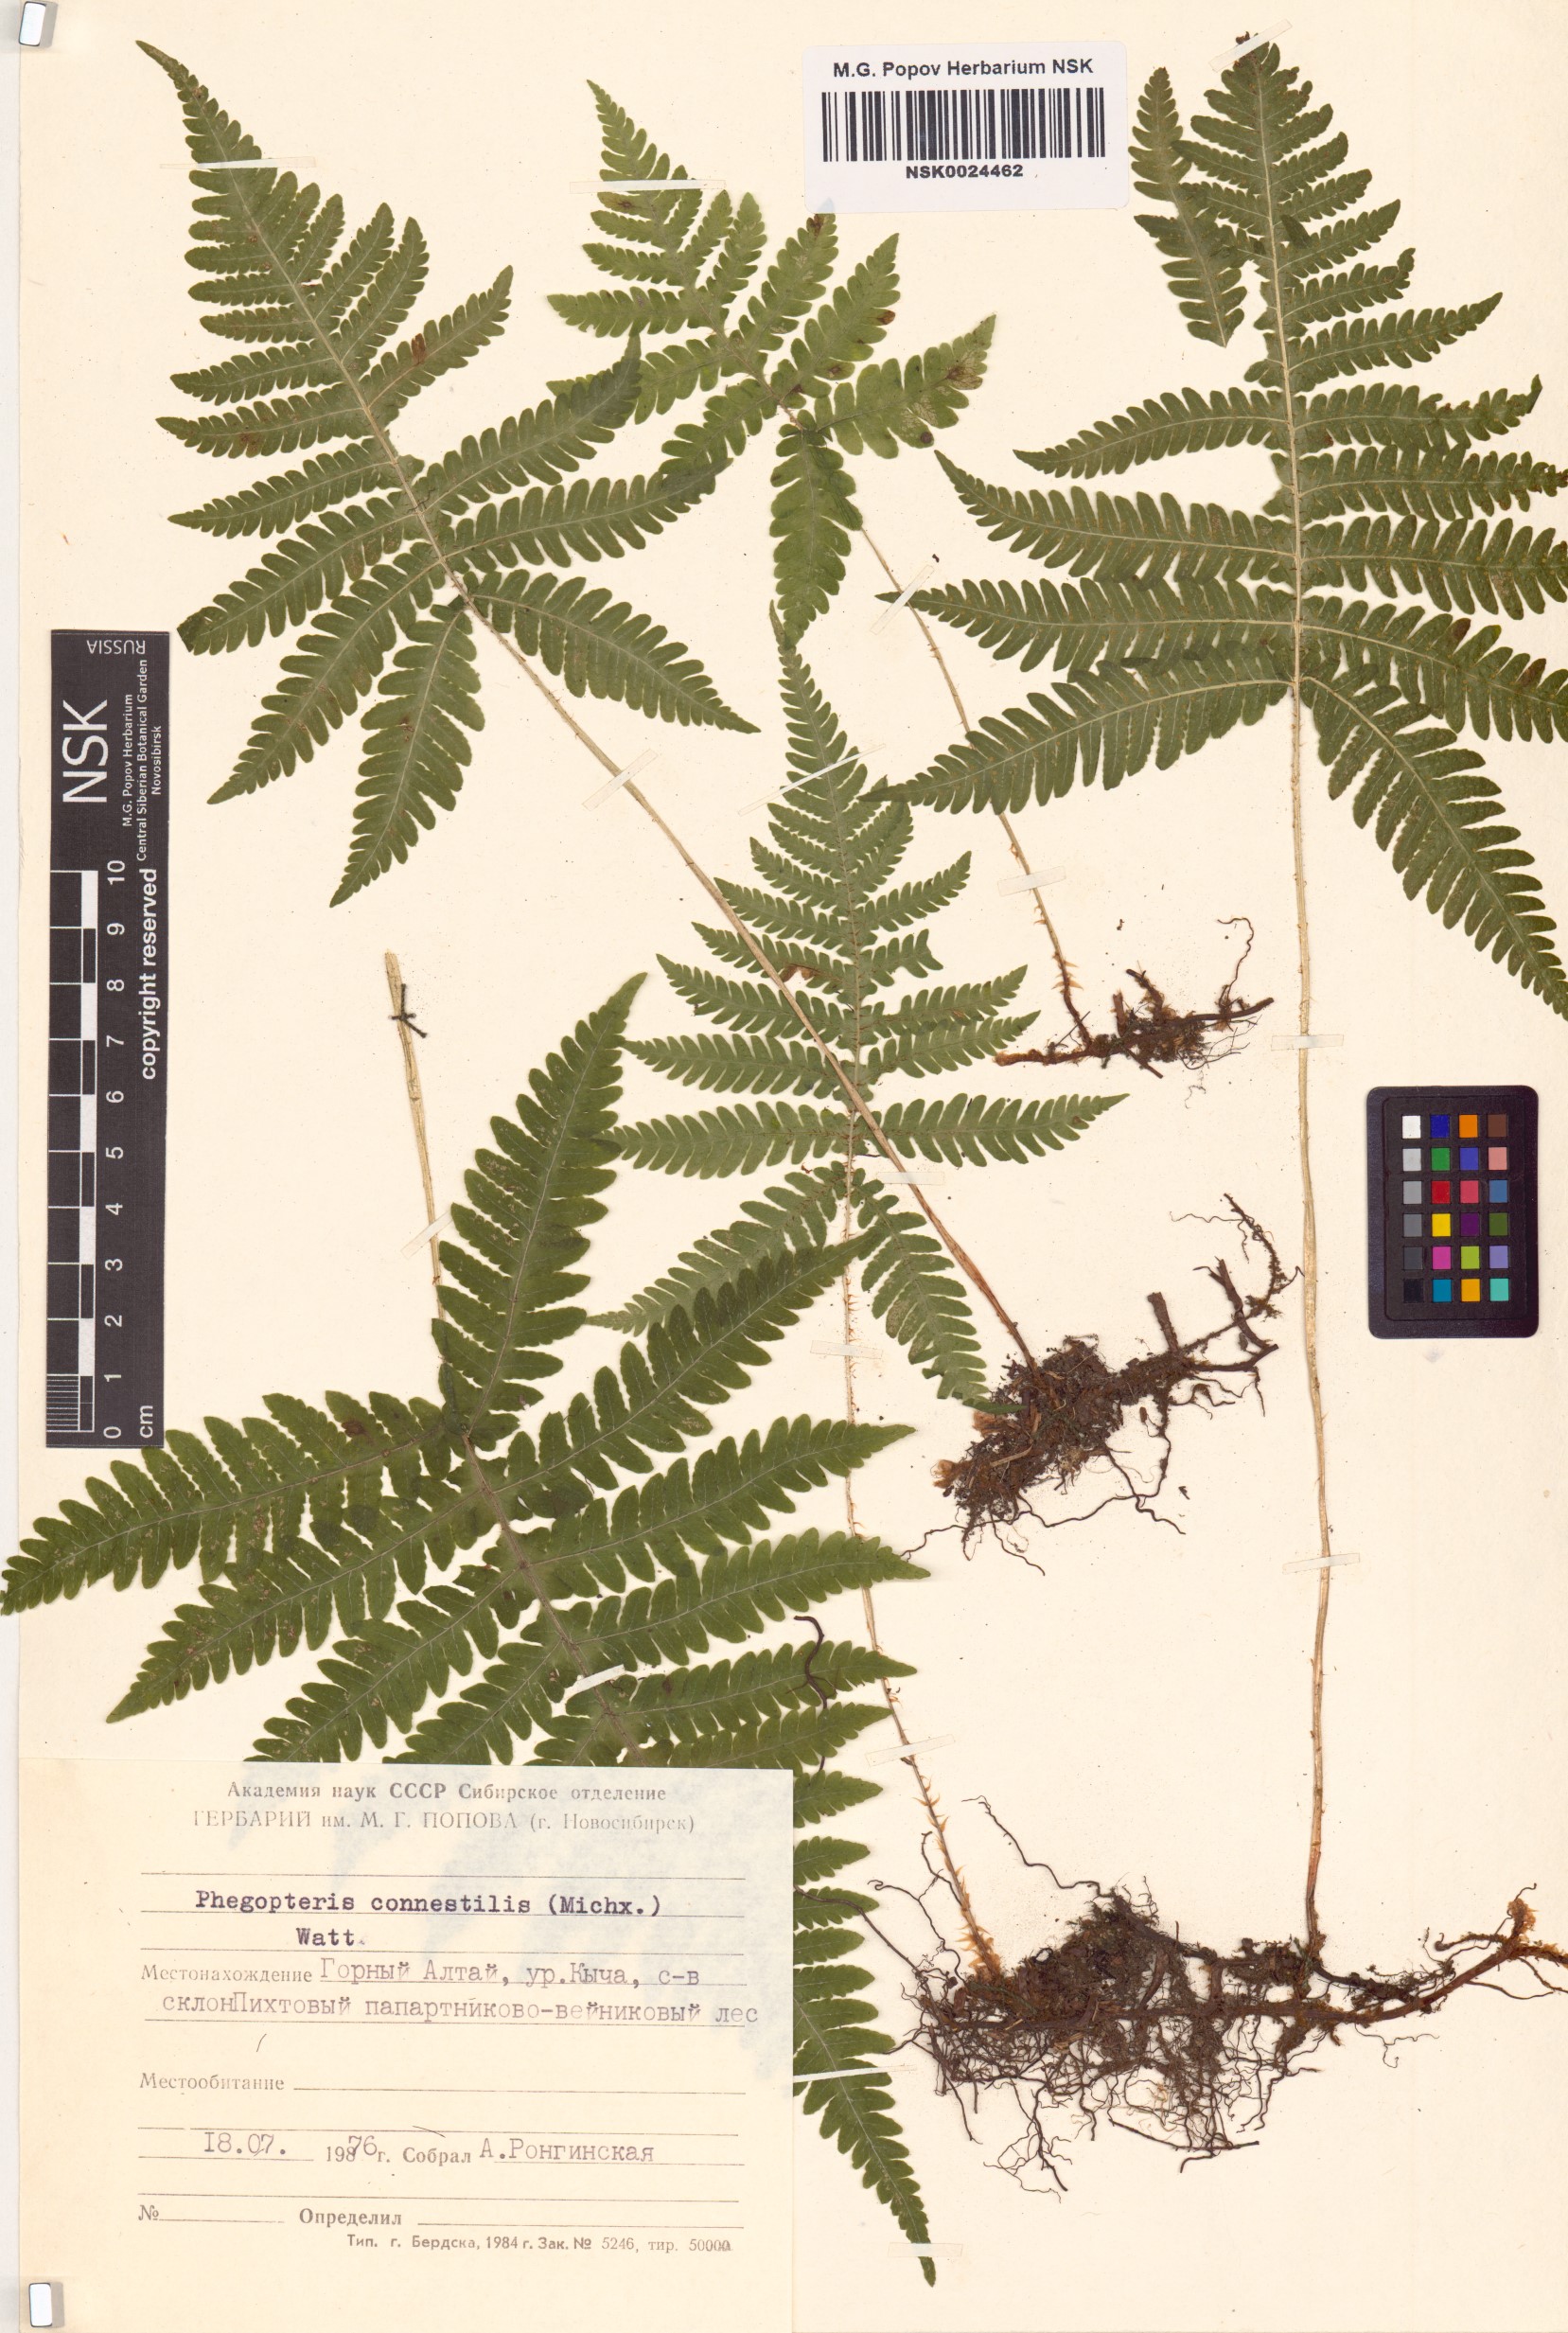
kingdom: Plantae
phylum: Tracheophyta
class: Polypodiopsida
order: Polypodiales
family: Thelypteridaceae
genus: Phegopteris
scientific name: Phegopteris connectilis
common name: Beech fern
